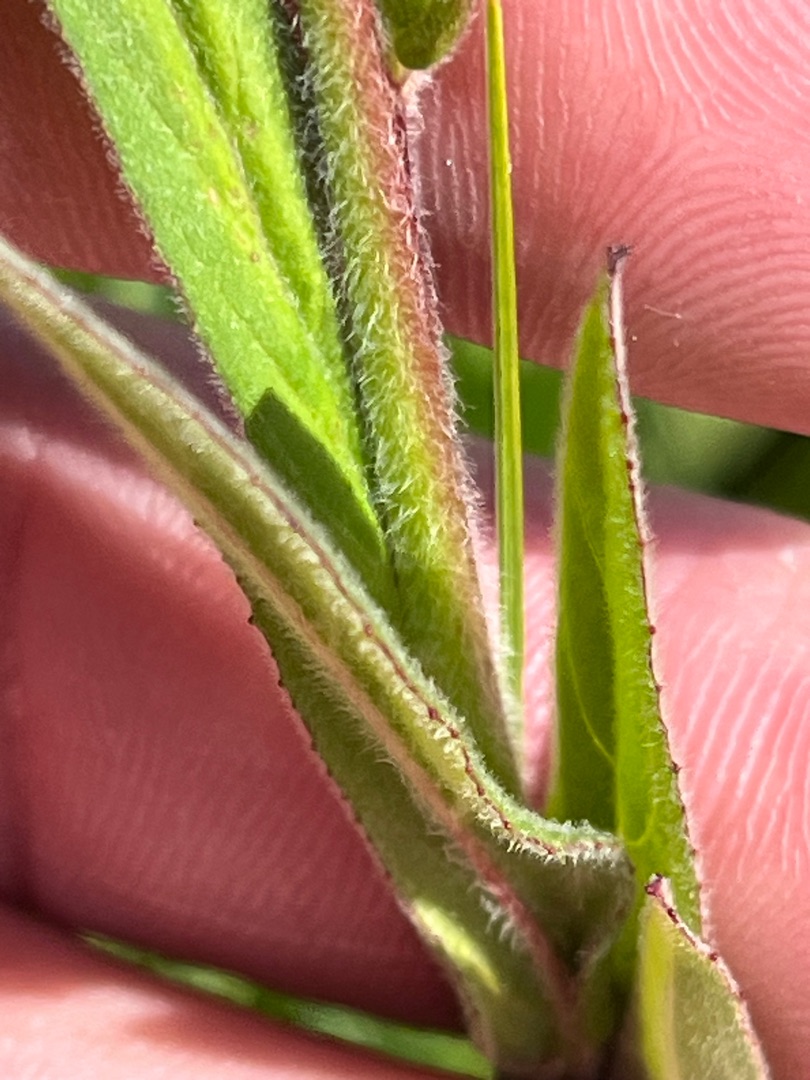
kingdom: Plantae
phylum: Tracheophyta
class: Magnoliopsida
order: Myrtales
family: Onagraceae
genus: Epilobium
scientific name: Epilobium parviflorum
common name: Dunet dueurt
